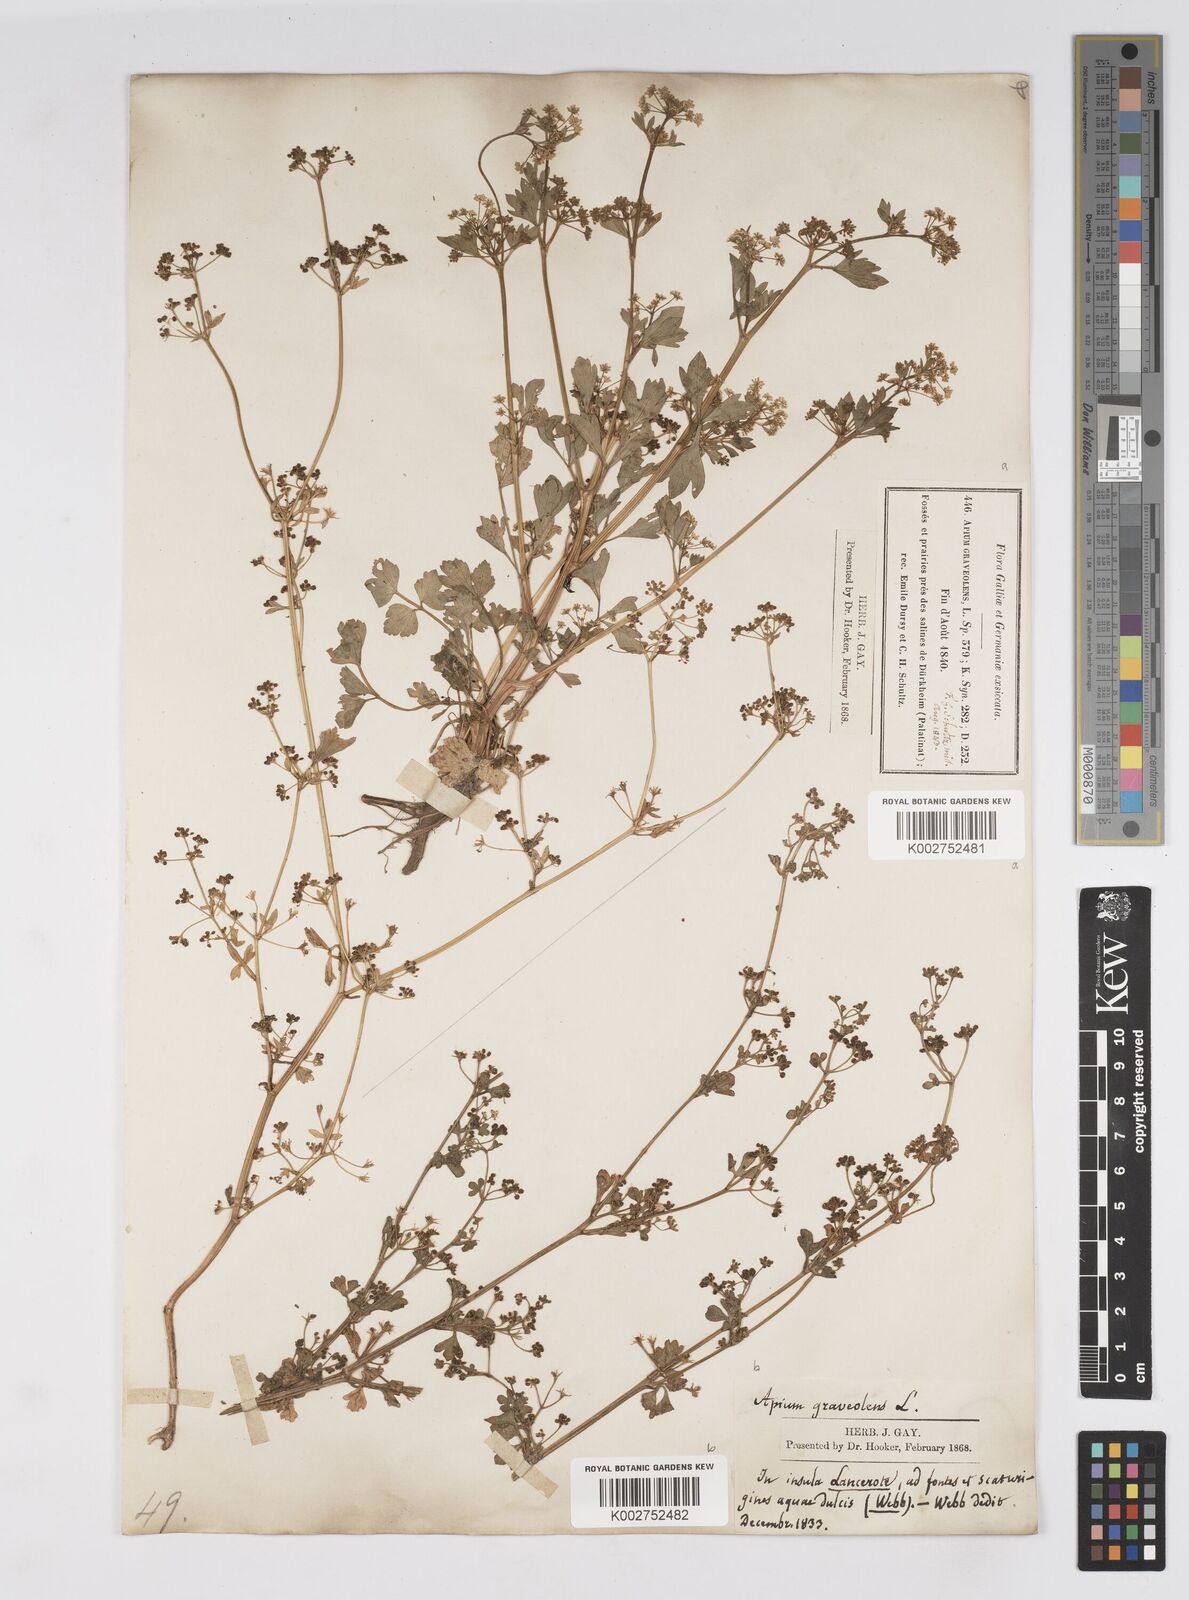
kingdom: Plantae
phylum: Tracheophyta
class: Magnoliopsida
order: Apiales
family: Apiaceae
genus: Apium
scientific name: Apium graveolens
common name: Wild celery
